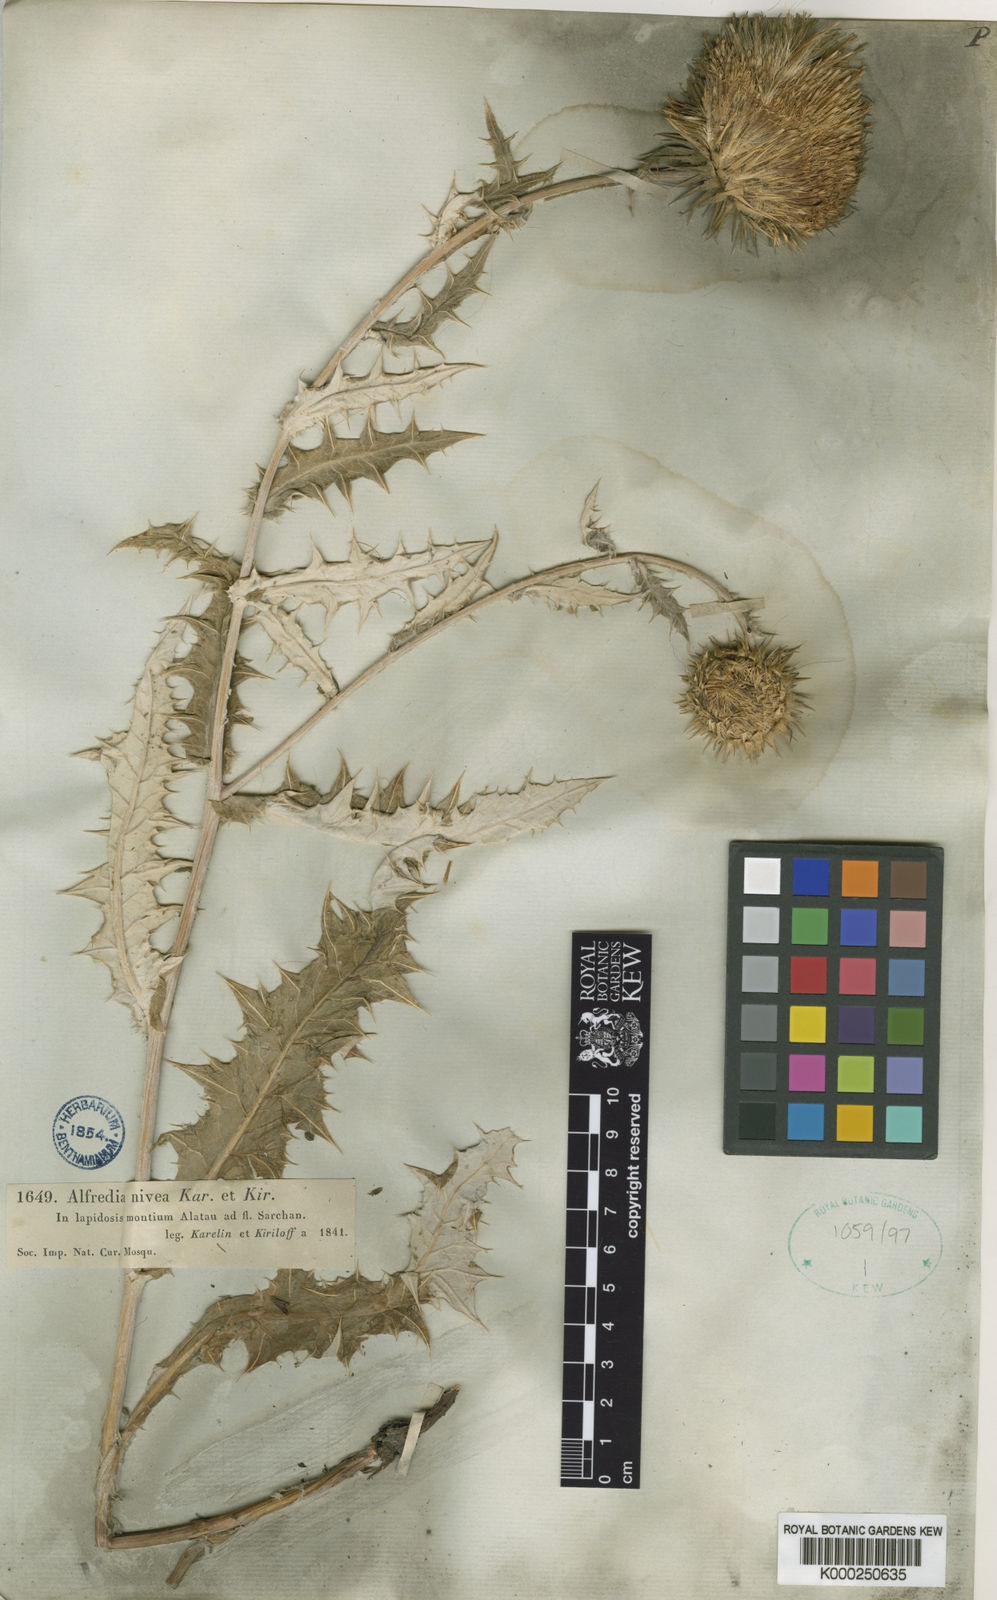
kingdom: Plantae
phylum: Tracheophyta
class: Magnoliopsida
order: Asterales
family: Asteraceae
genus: Alfredia
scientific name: Alfredia nivea
